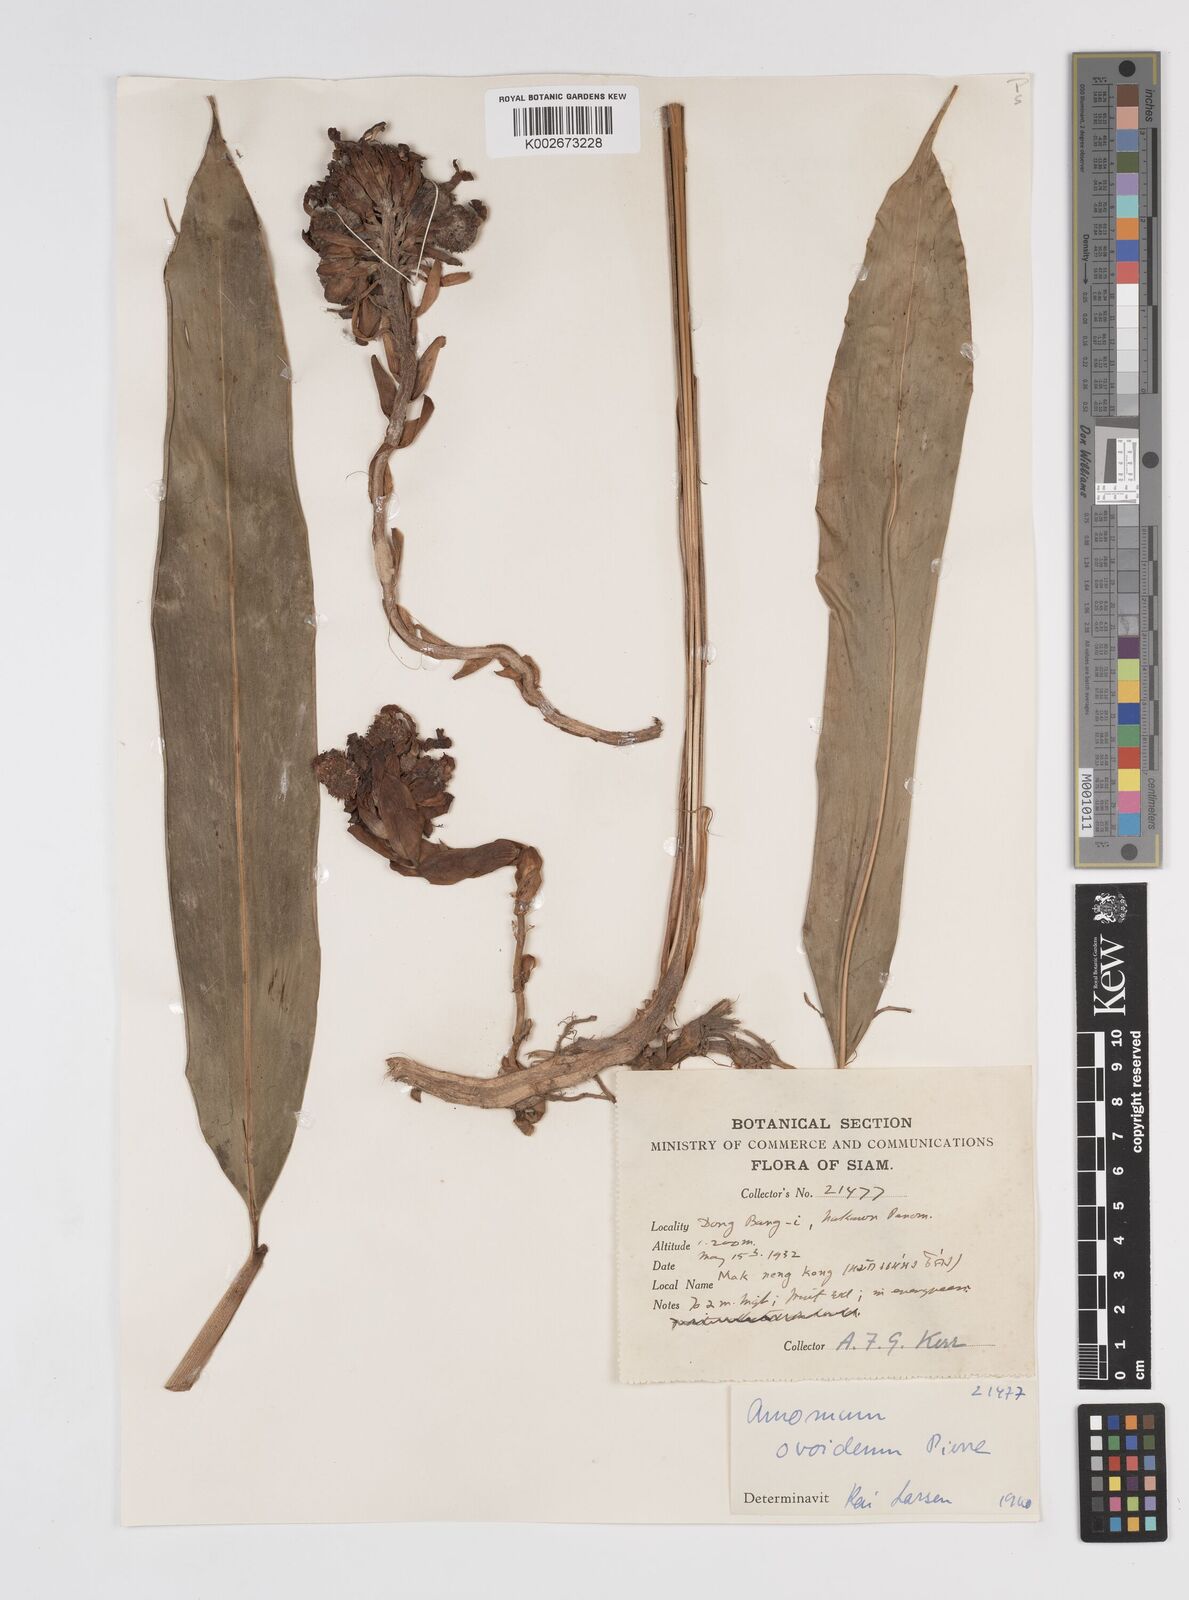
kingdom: Plantae
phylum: Tracheophyta
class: Liliopsida
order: Zingiberales
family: Zingiberaceae
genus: Wurfbainia
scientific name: Wurfbainia uliginosa
